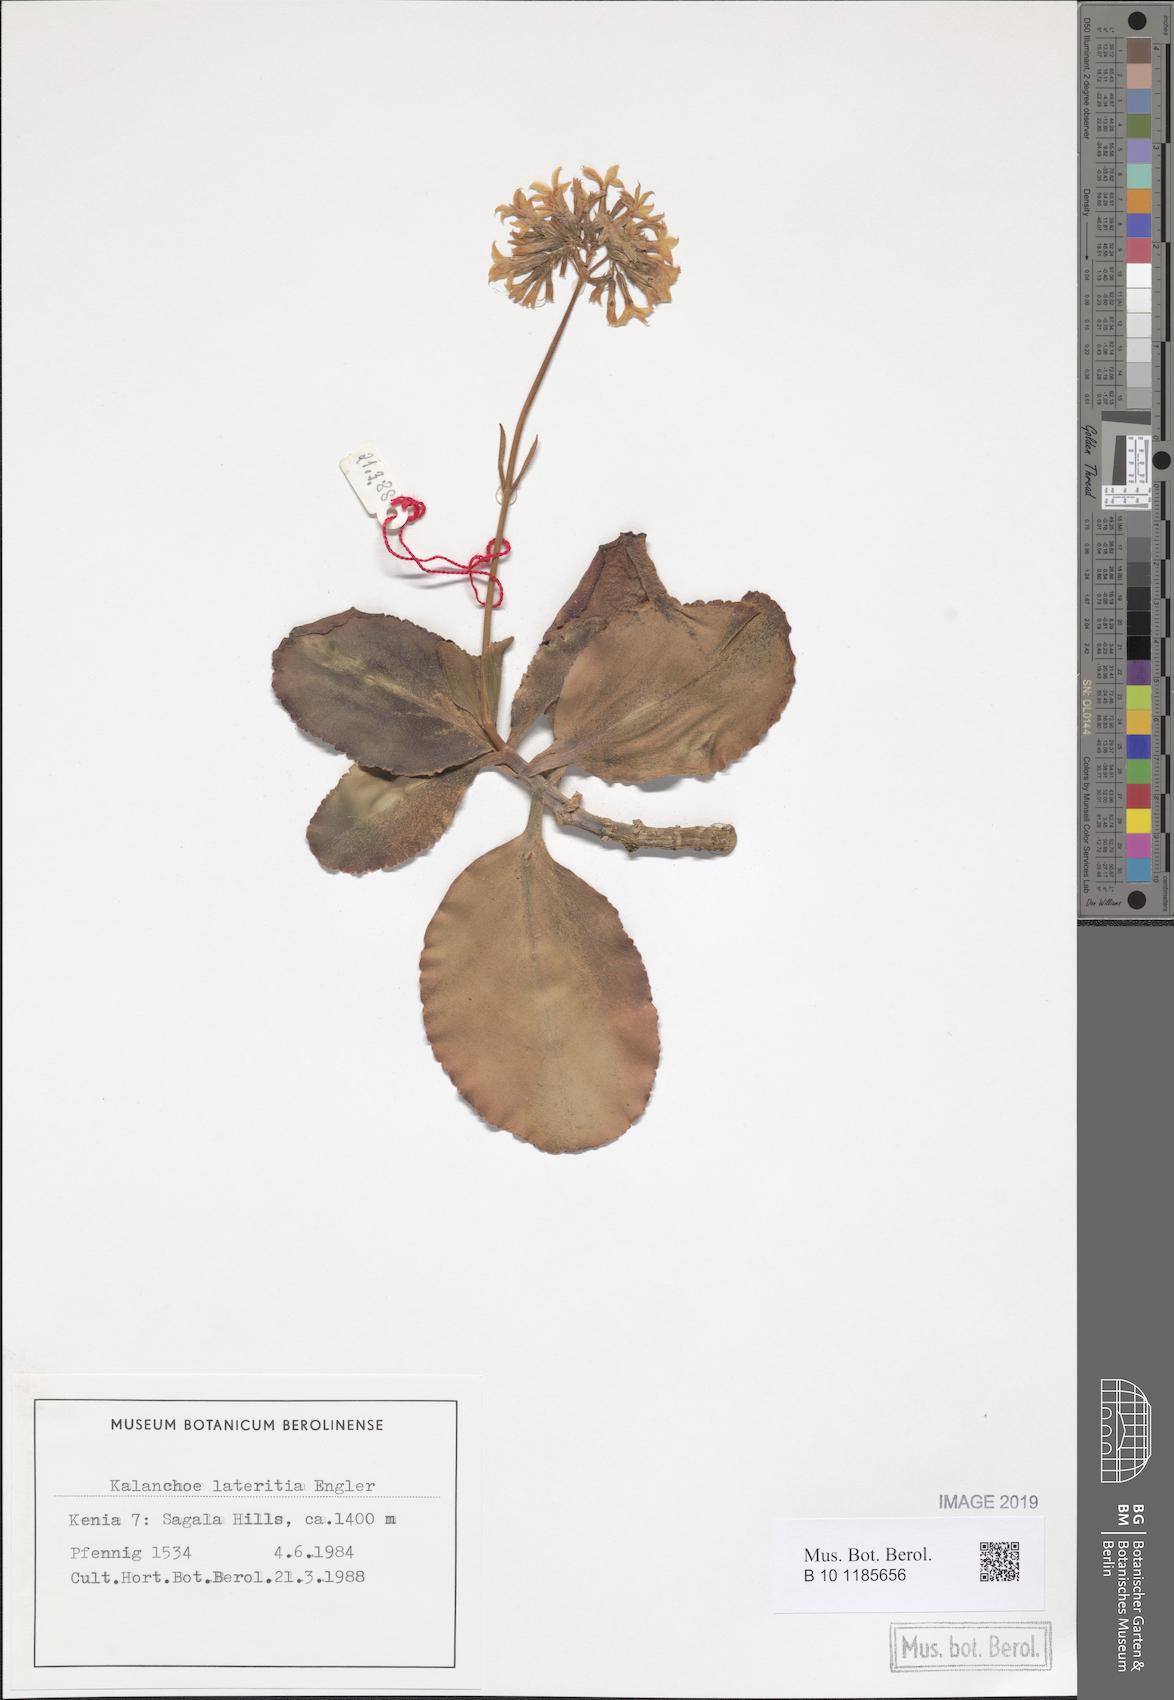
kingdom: Plantae
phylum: Tracheophyta
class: Magnoliopsida
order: Saxifragales
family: Crassulaceae
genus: Kalanchoe
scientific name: Kalanchoe lateritia
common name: Kalanchoe
